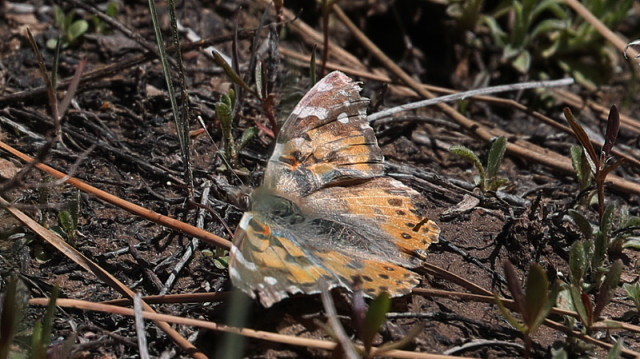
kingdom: Animalia
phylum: Arthropoda
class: Insecta
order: Lepidoptera
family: Nymphalidae
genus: Vanessa
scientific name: Vanessa cardui
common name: Painted Lady
